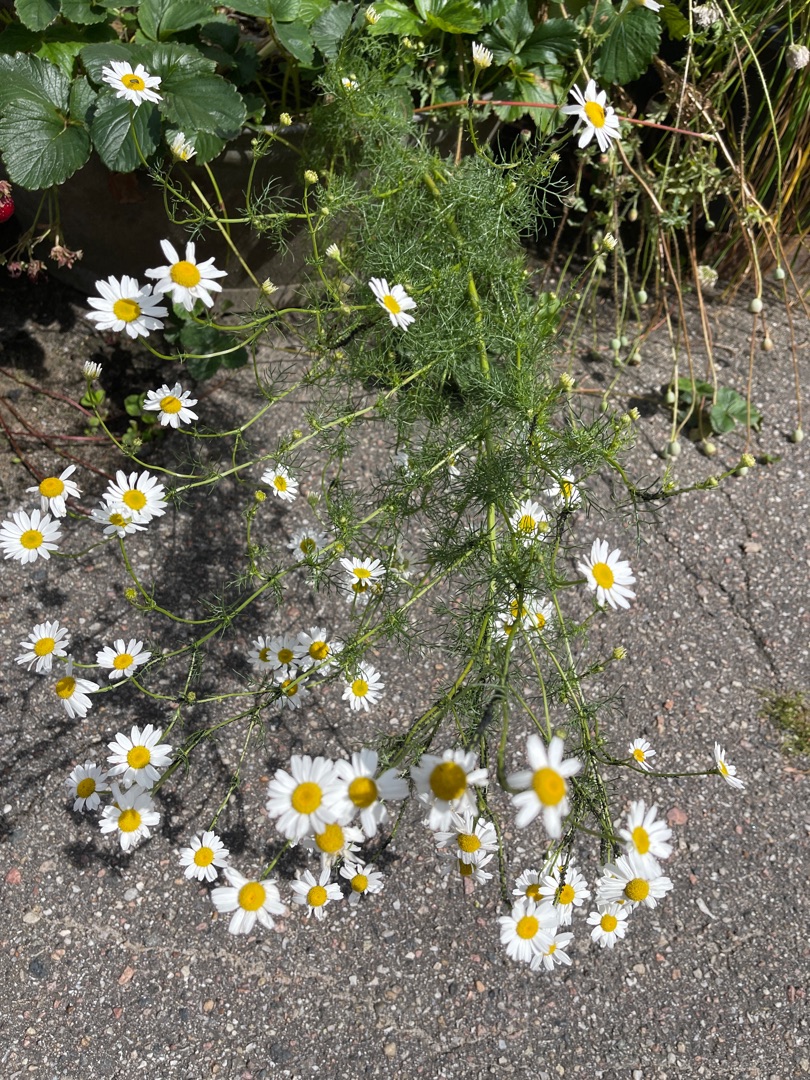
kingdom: Plantae
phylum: Tracheophyta
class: Magnoliopsida
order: Asterales
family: Asteraceae
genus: Tripleurospermum
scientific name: Tripleurospermum inodorum
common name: Lugtløs kamille
